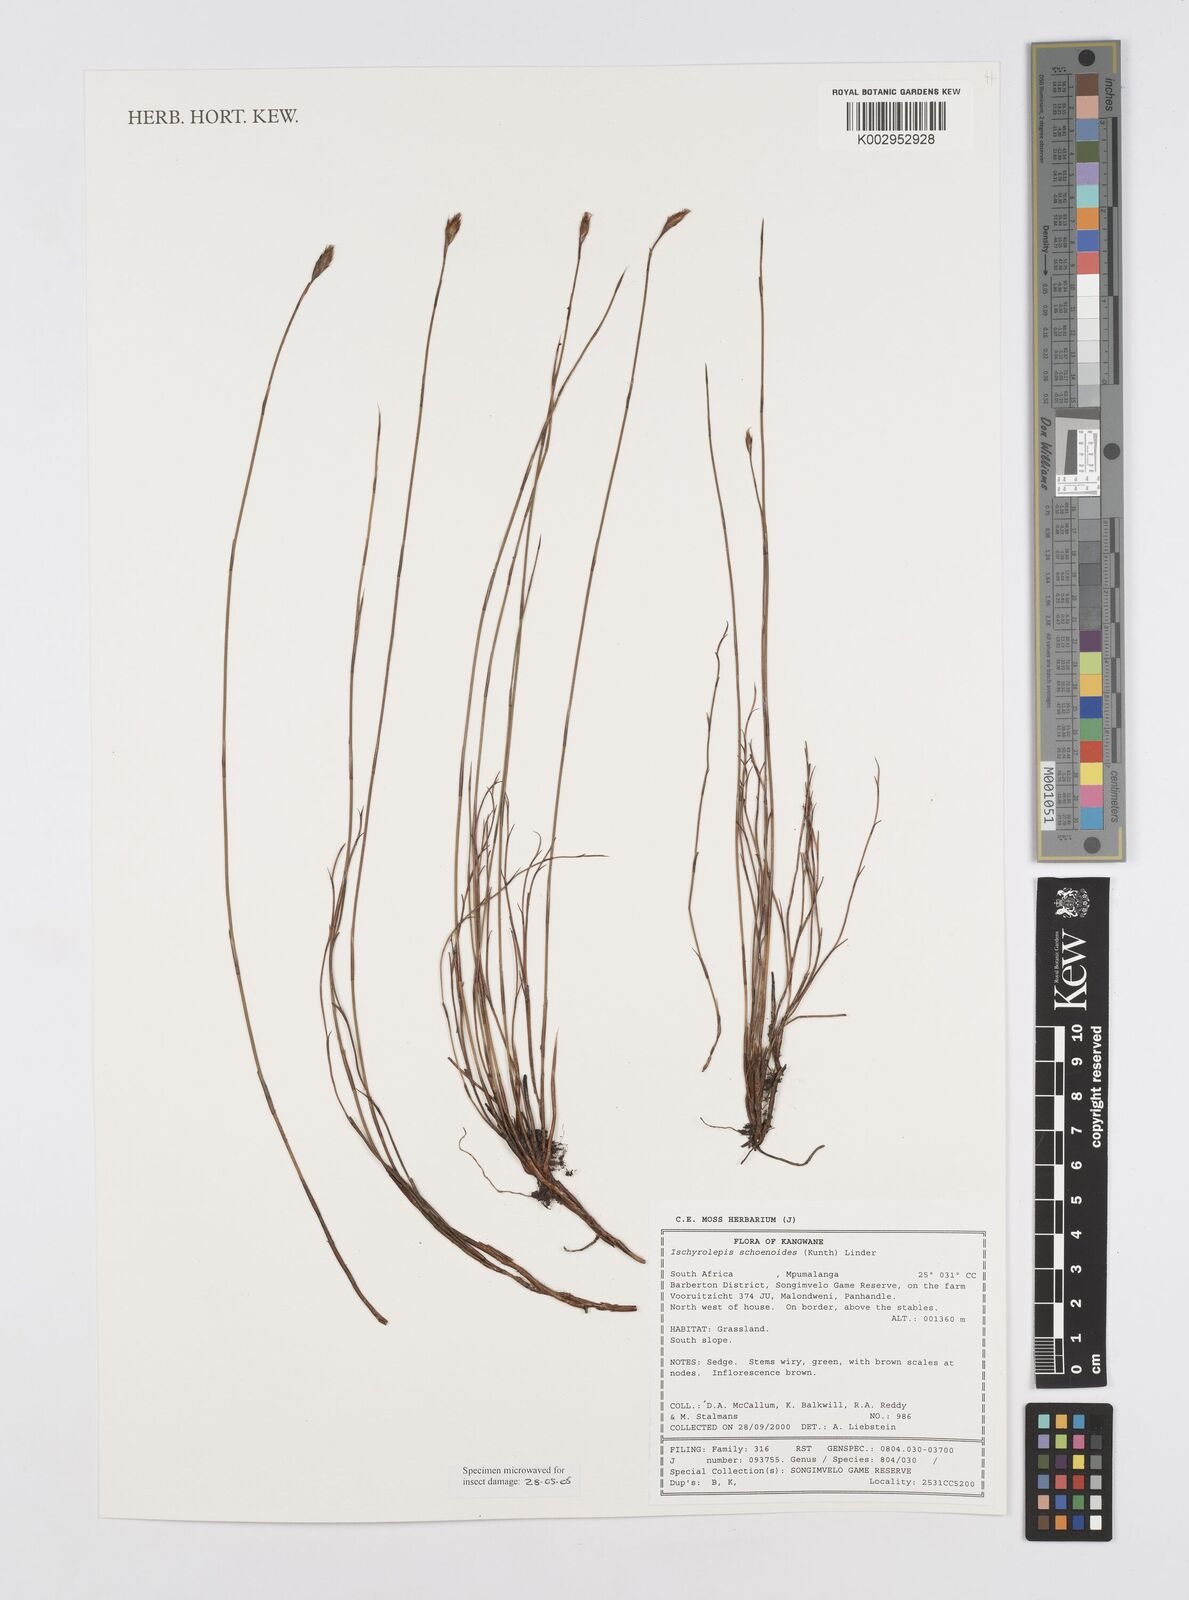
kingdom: Plantae
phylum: Tracheophyta
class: Liliopsida
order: Poales
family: Restionaceae
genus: Restio
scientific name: Restio schoenoides
